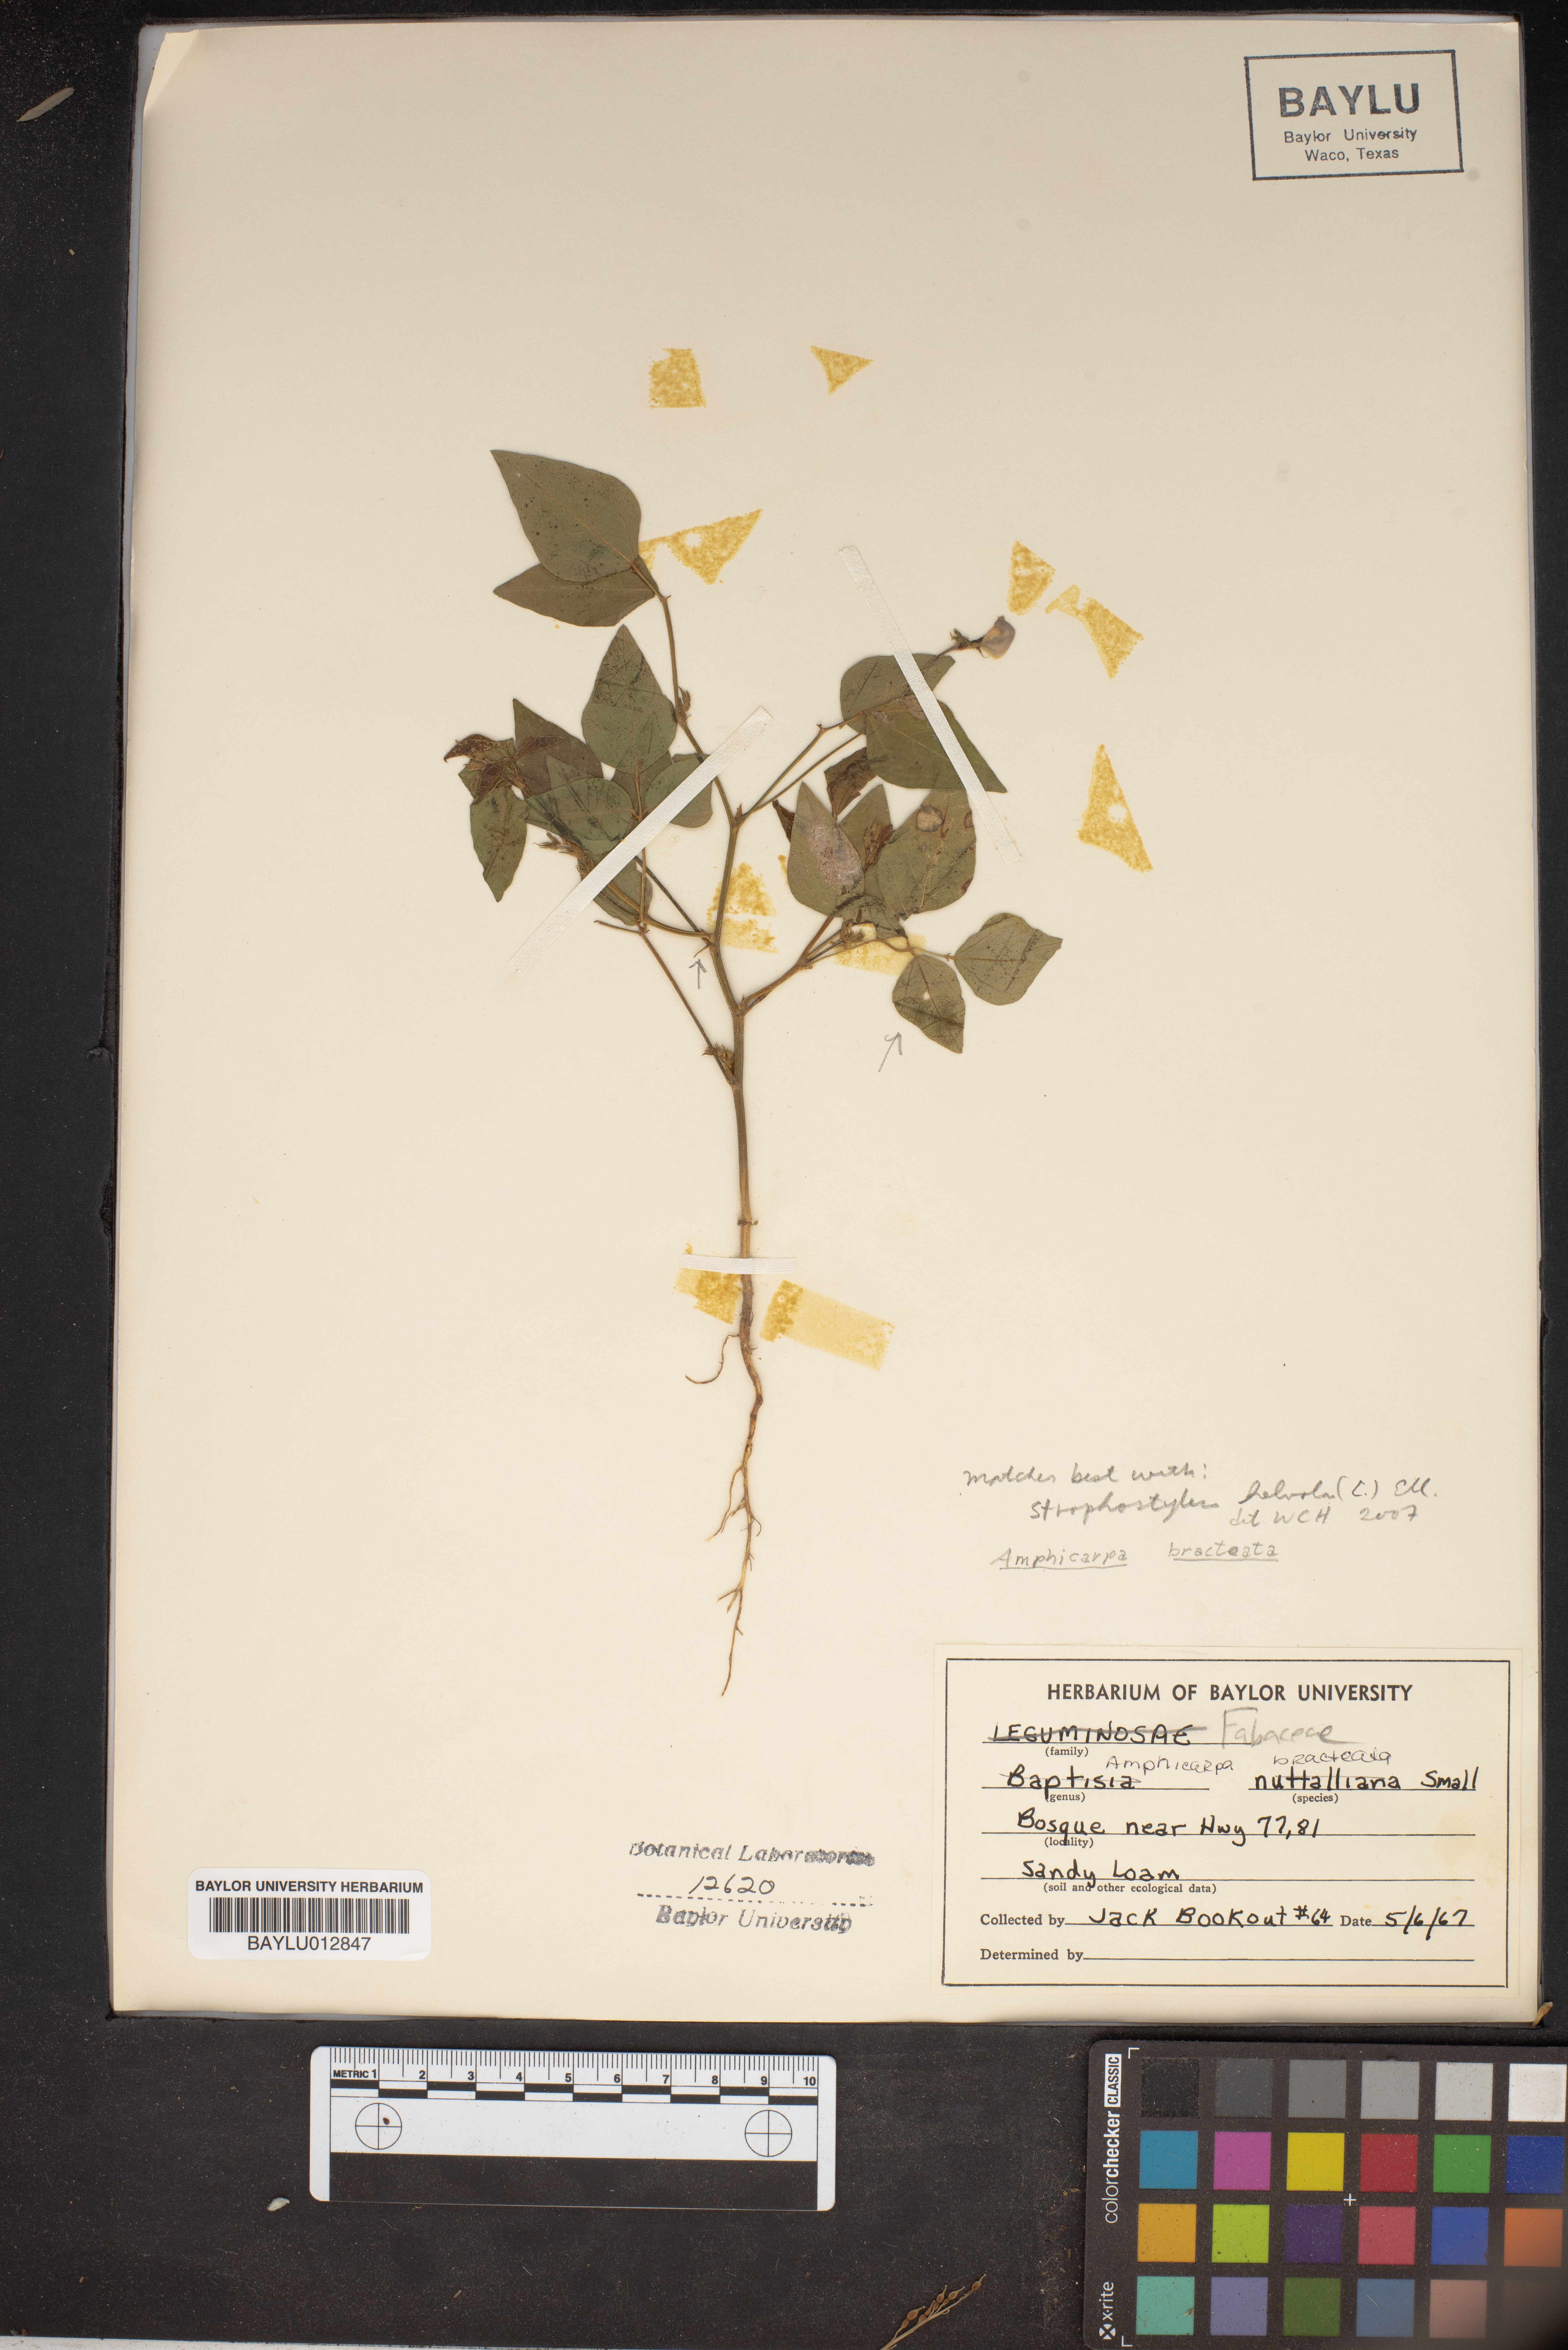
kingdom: Plantae
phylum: Tracheophyta
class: Magnoliopsida
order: Fabales
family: Fabaceae
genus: Amphicarpaea
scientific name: Amphicarpaea bracteata
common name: American hog peanut
